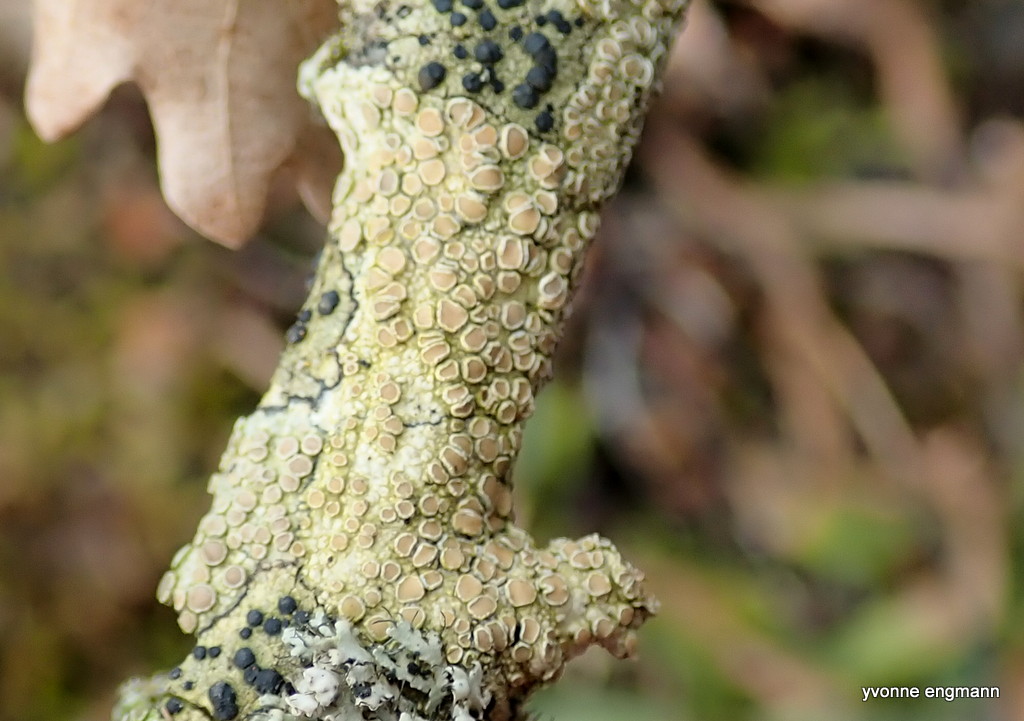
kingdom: Fungi
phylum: Ascomycota
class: Lecanoromycetes
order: Lecanorales
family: Lecanoraceae
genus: Lecanora
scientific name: Lecanora chlarotera
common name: brun kantskivelav
